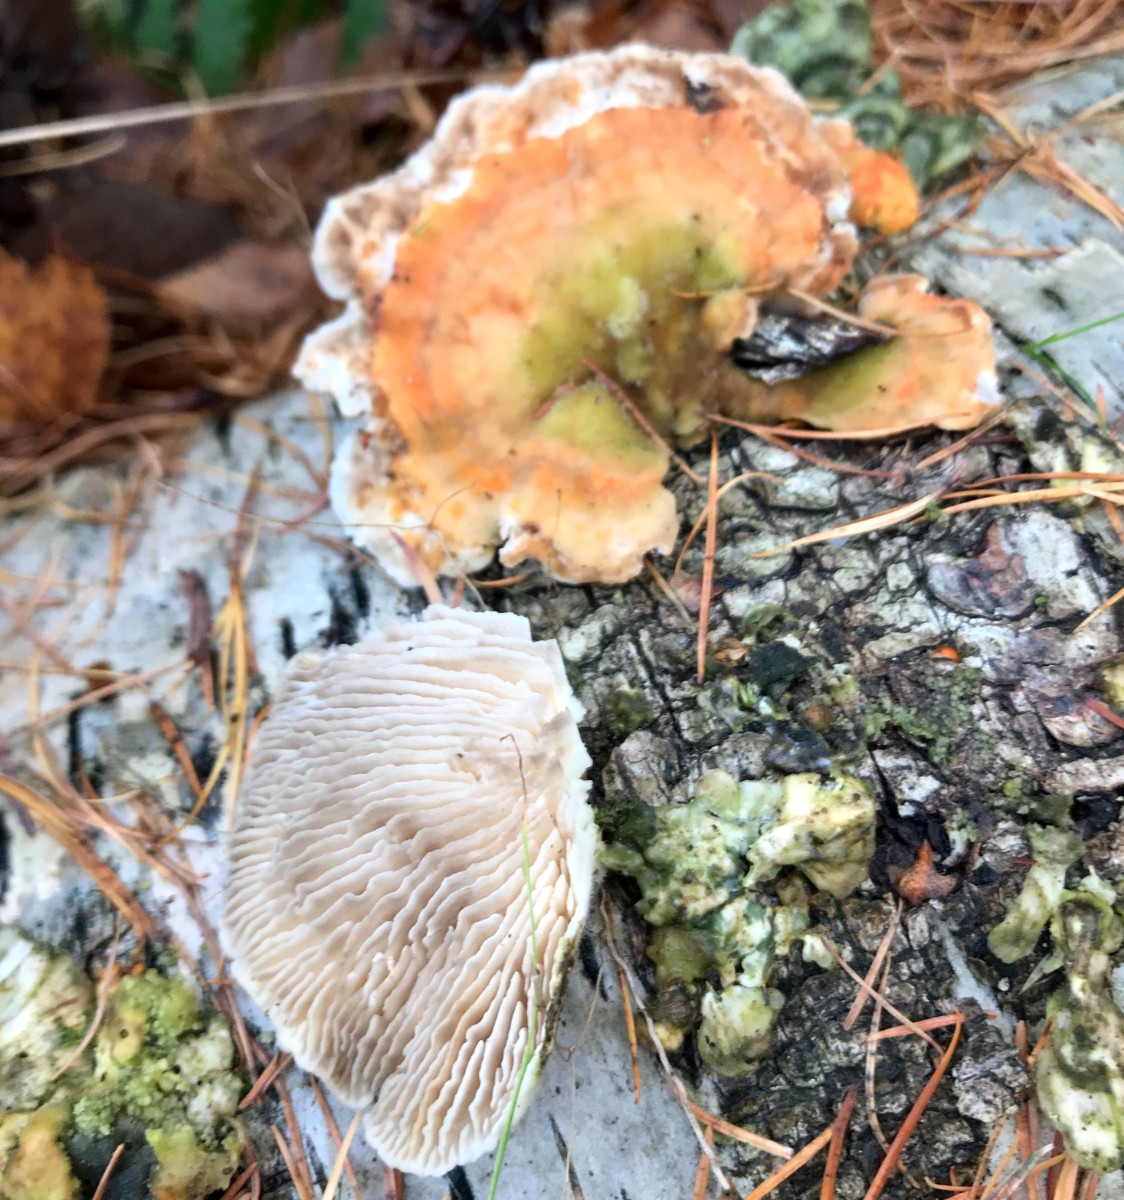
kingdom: Fungi
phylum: Basidiomycota
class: Agaricomycetes
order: Polyporales
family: Polyporaceae
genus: Lenzites
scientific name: Lenzites betulinus
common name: birke-læderporesvamp
